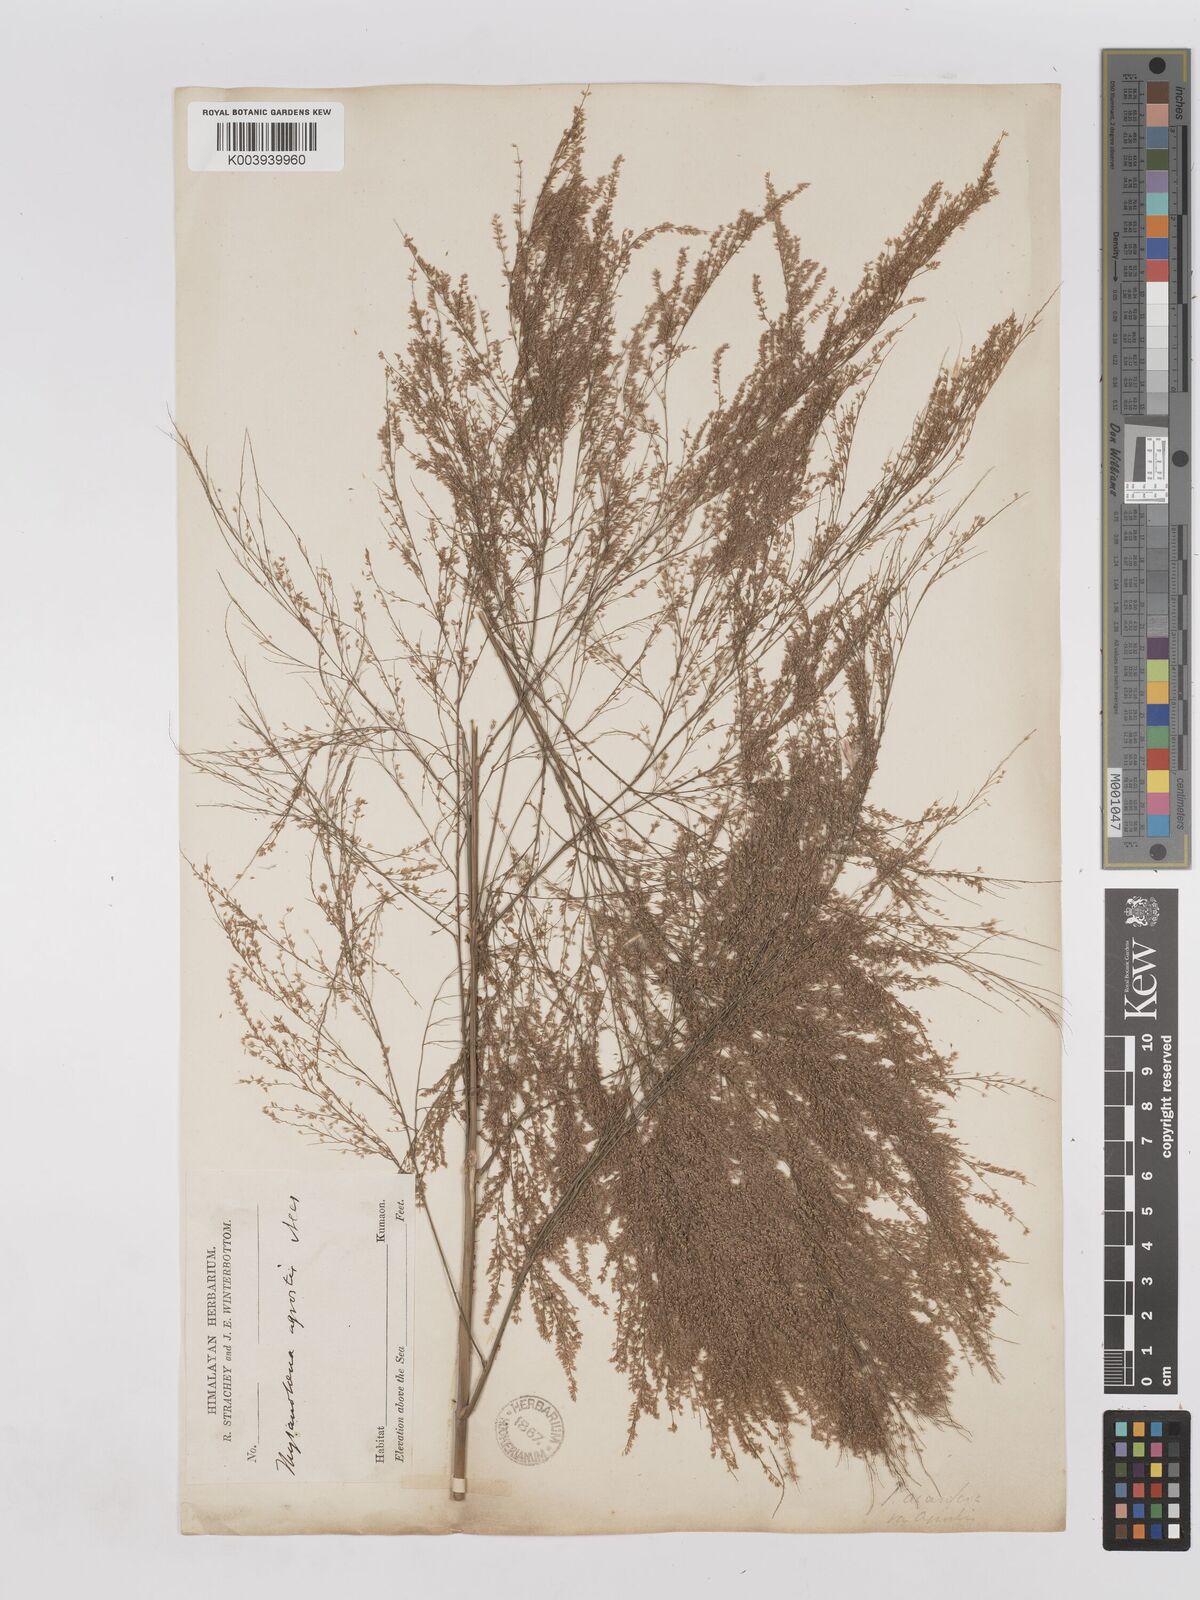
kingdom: Plantae
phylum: Tracheophyta
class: Liliopsida
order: Poales
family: Poaceae
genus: Thysanolaena
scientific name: Thysanolaena latifolia
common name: Tiger grass
